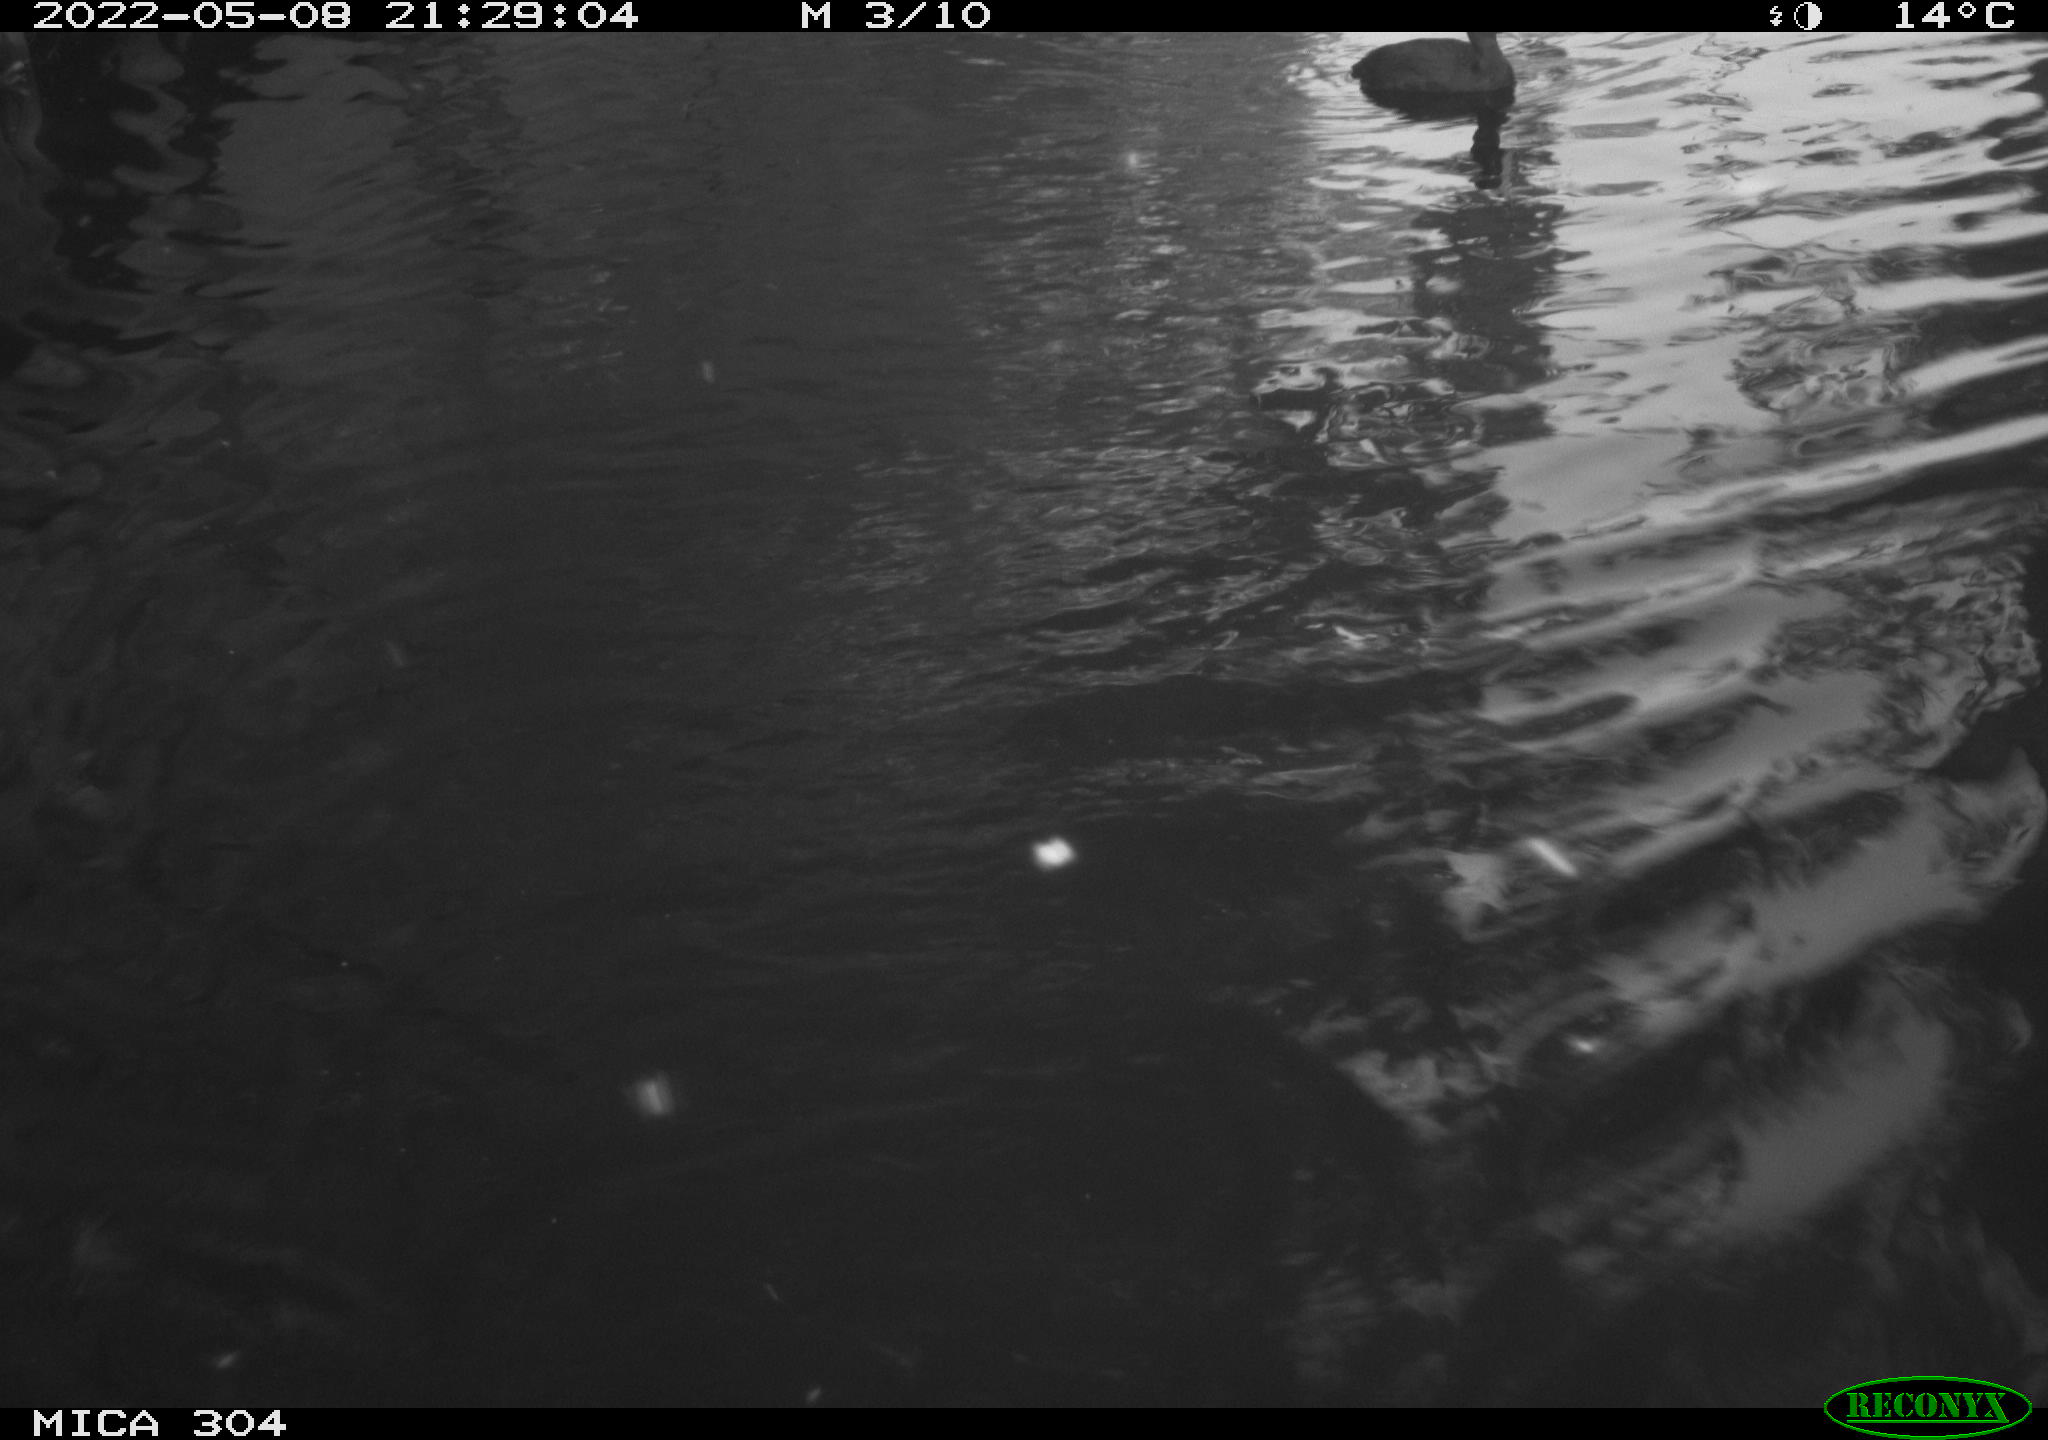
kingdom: Animalia
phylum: Chordata
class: Aves
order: Gruiformes
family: Rallidae
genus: Fulica
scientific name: Fulica atra
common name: Eurasian coot
